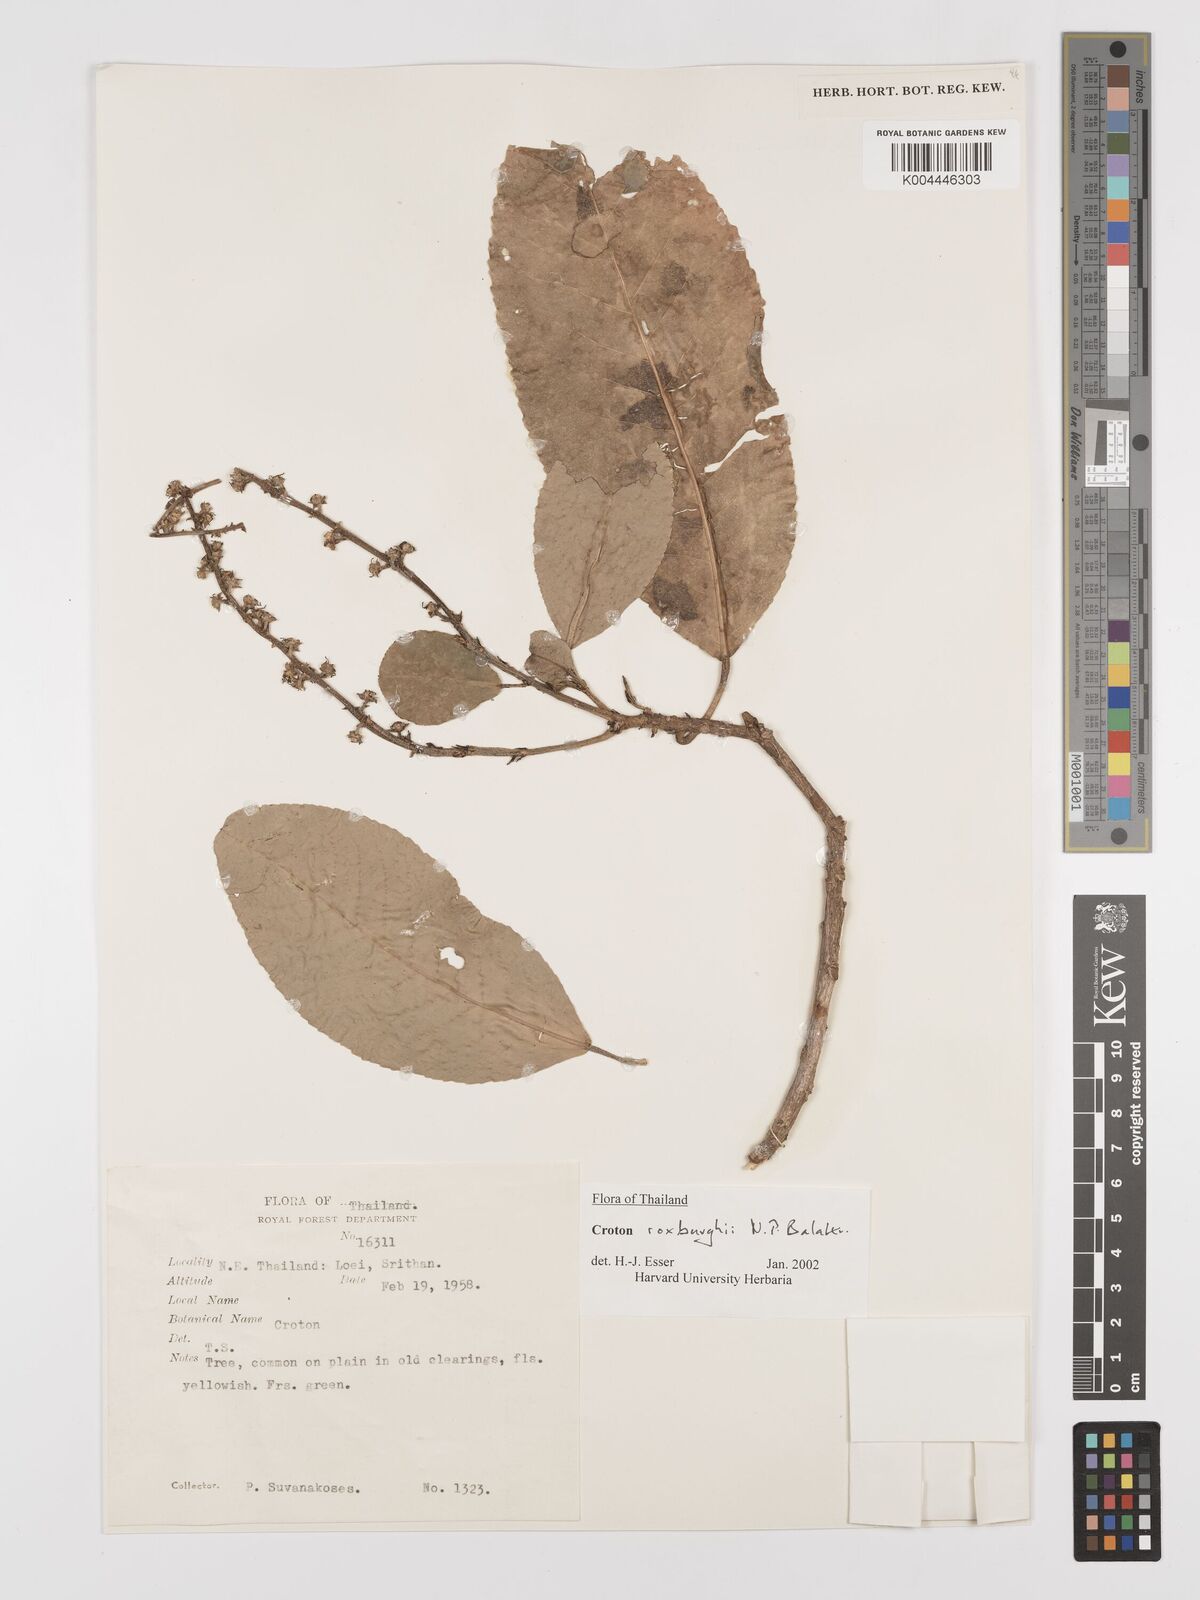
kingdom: Plantae
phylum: Tracheophyta
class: Magnoliopsida
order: Malpighiales
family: Euphorbiaceae
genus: Croton
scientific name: Croton
